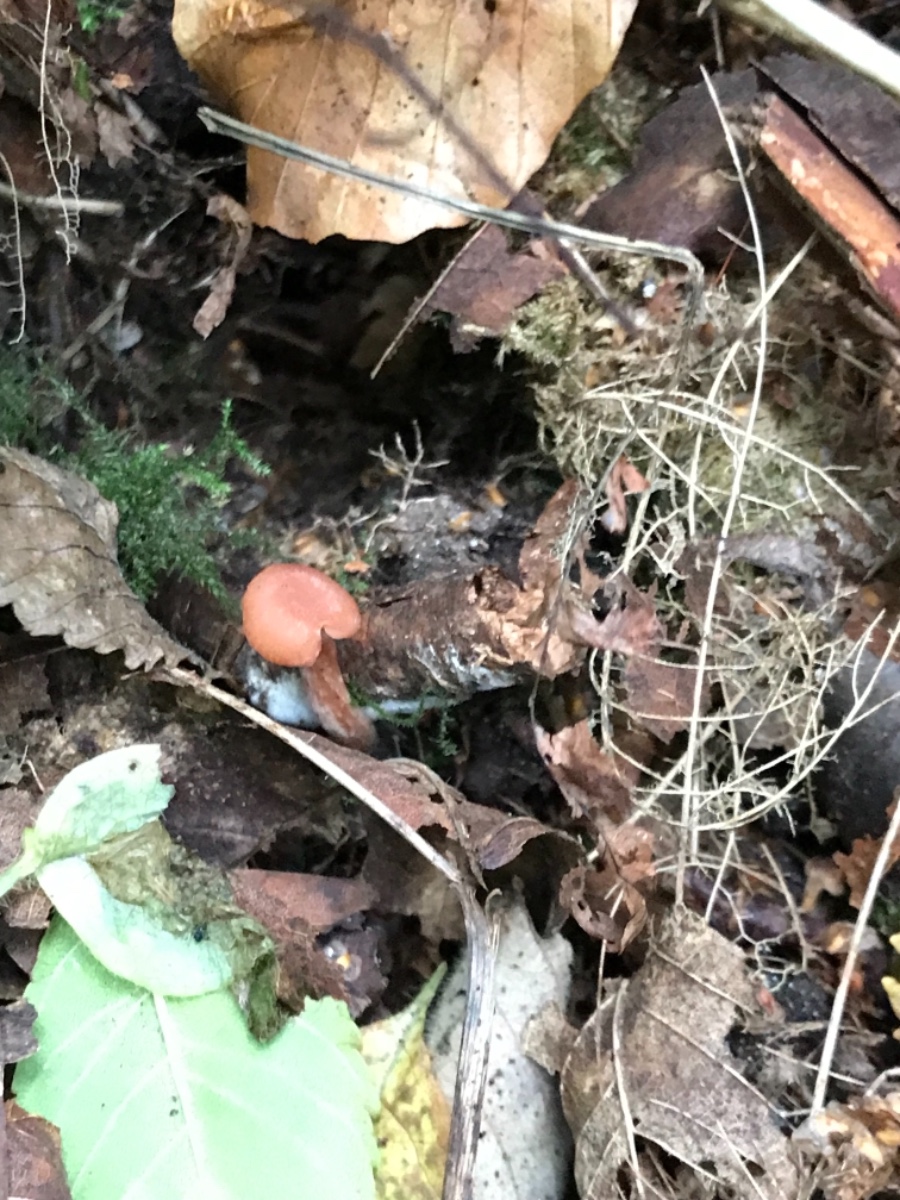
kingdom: Fungi
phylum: Basidiomycota
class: Agaricomycetes
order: Agaricales
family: Hydnangiaceae
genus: Laccaria
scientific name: Laccaria laccata
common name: rød ametysthat
